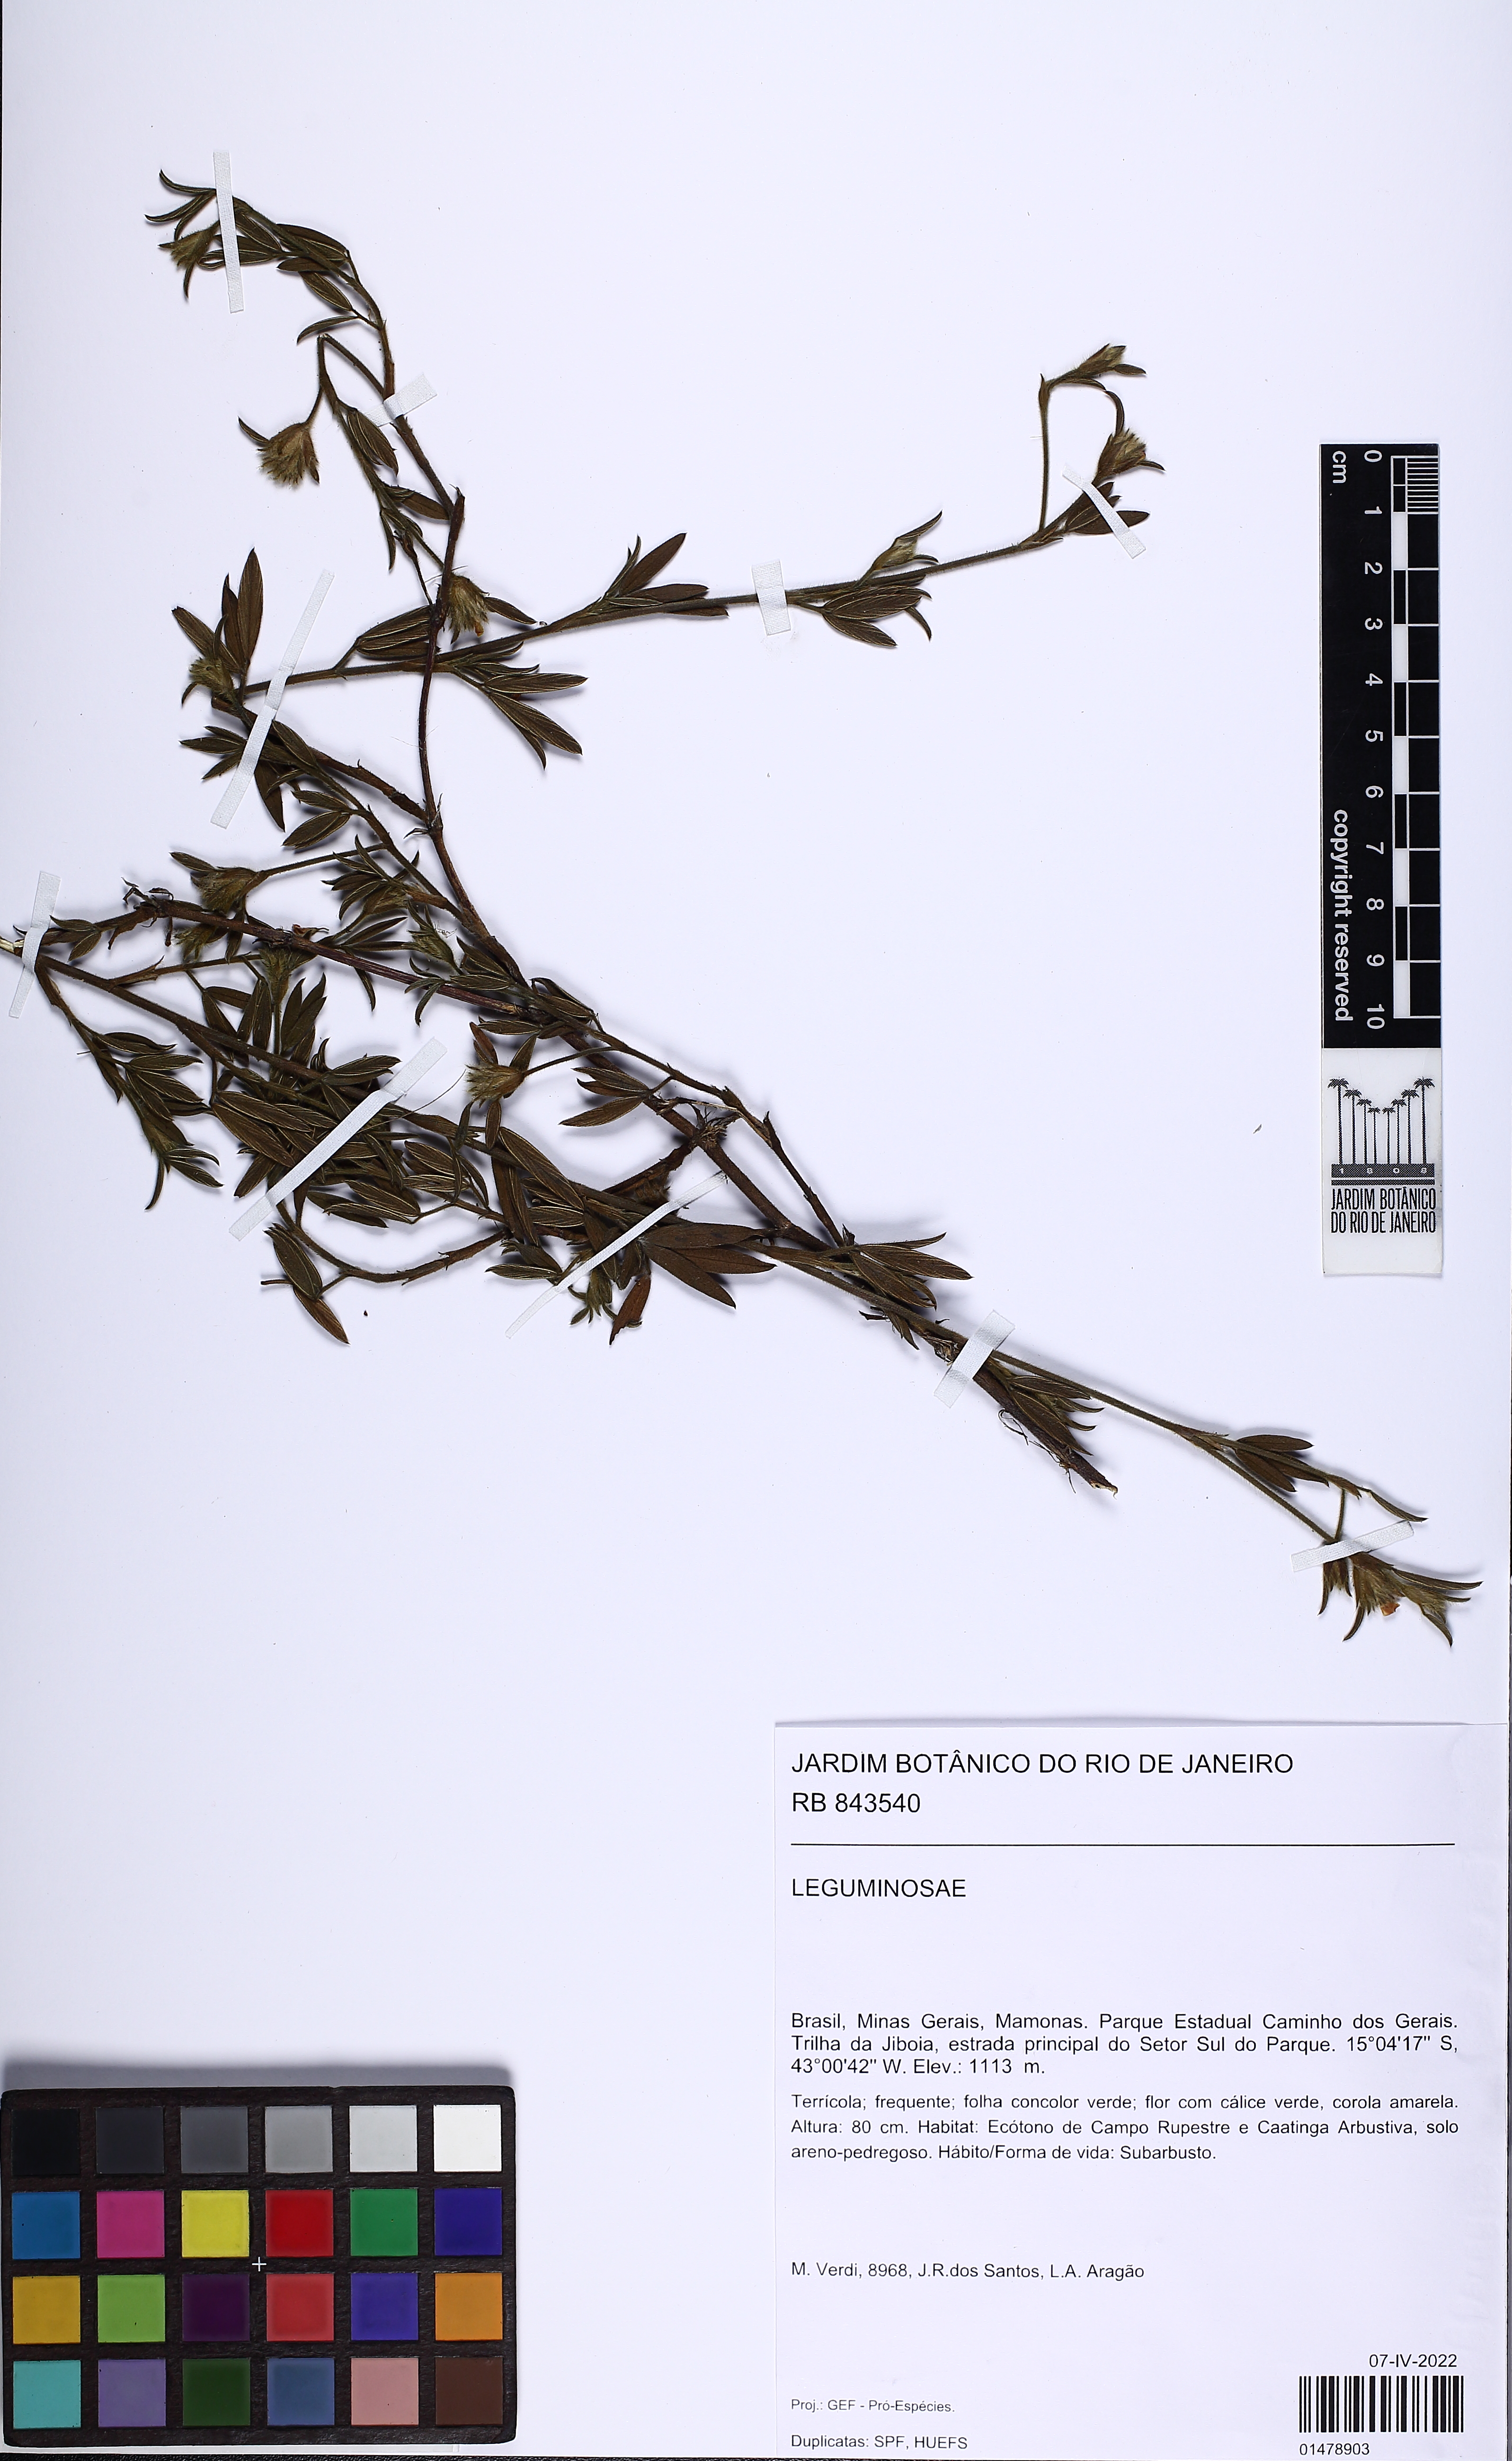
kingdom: Plantae
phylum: Tracheophyta
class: Magnoliopsida
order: Fabales
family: Fabaceae
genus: Stylosanthes
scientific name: Stylosanthes
